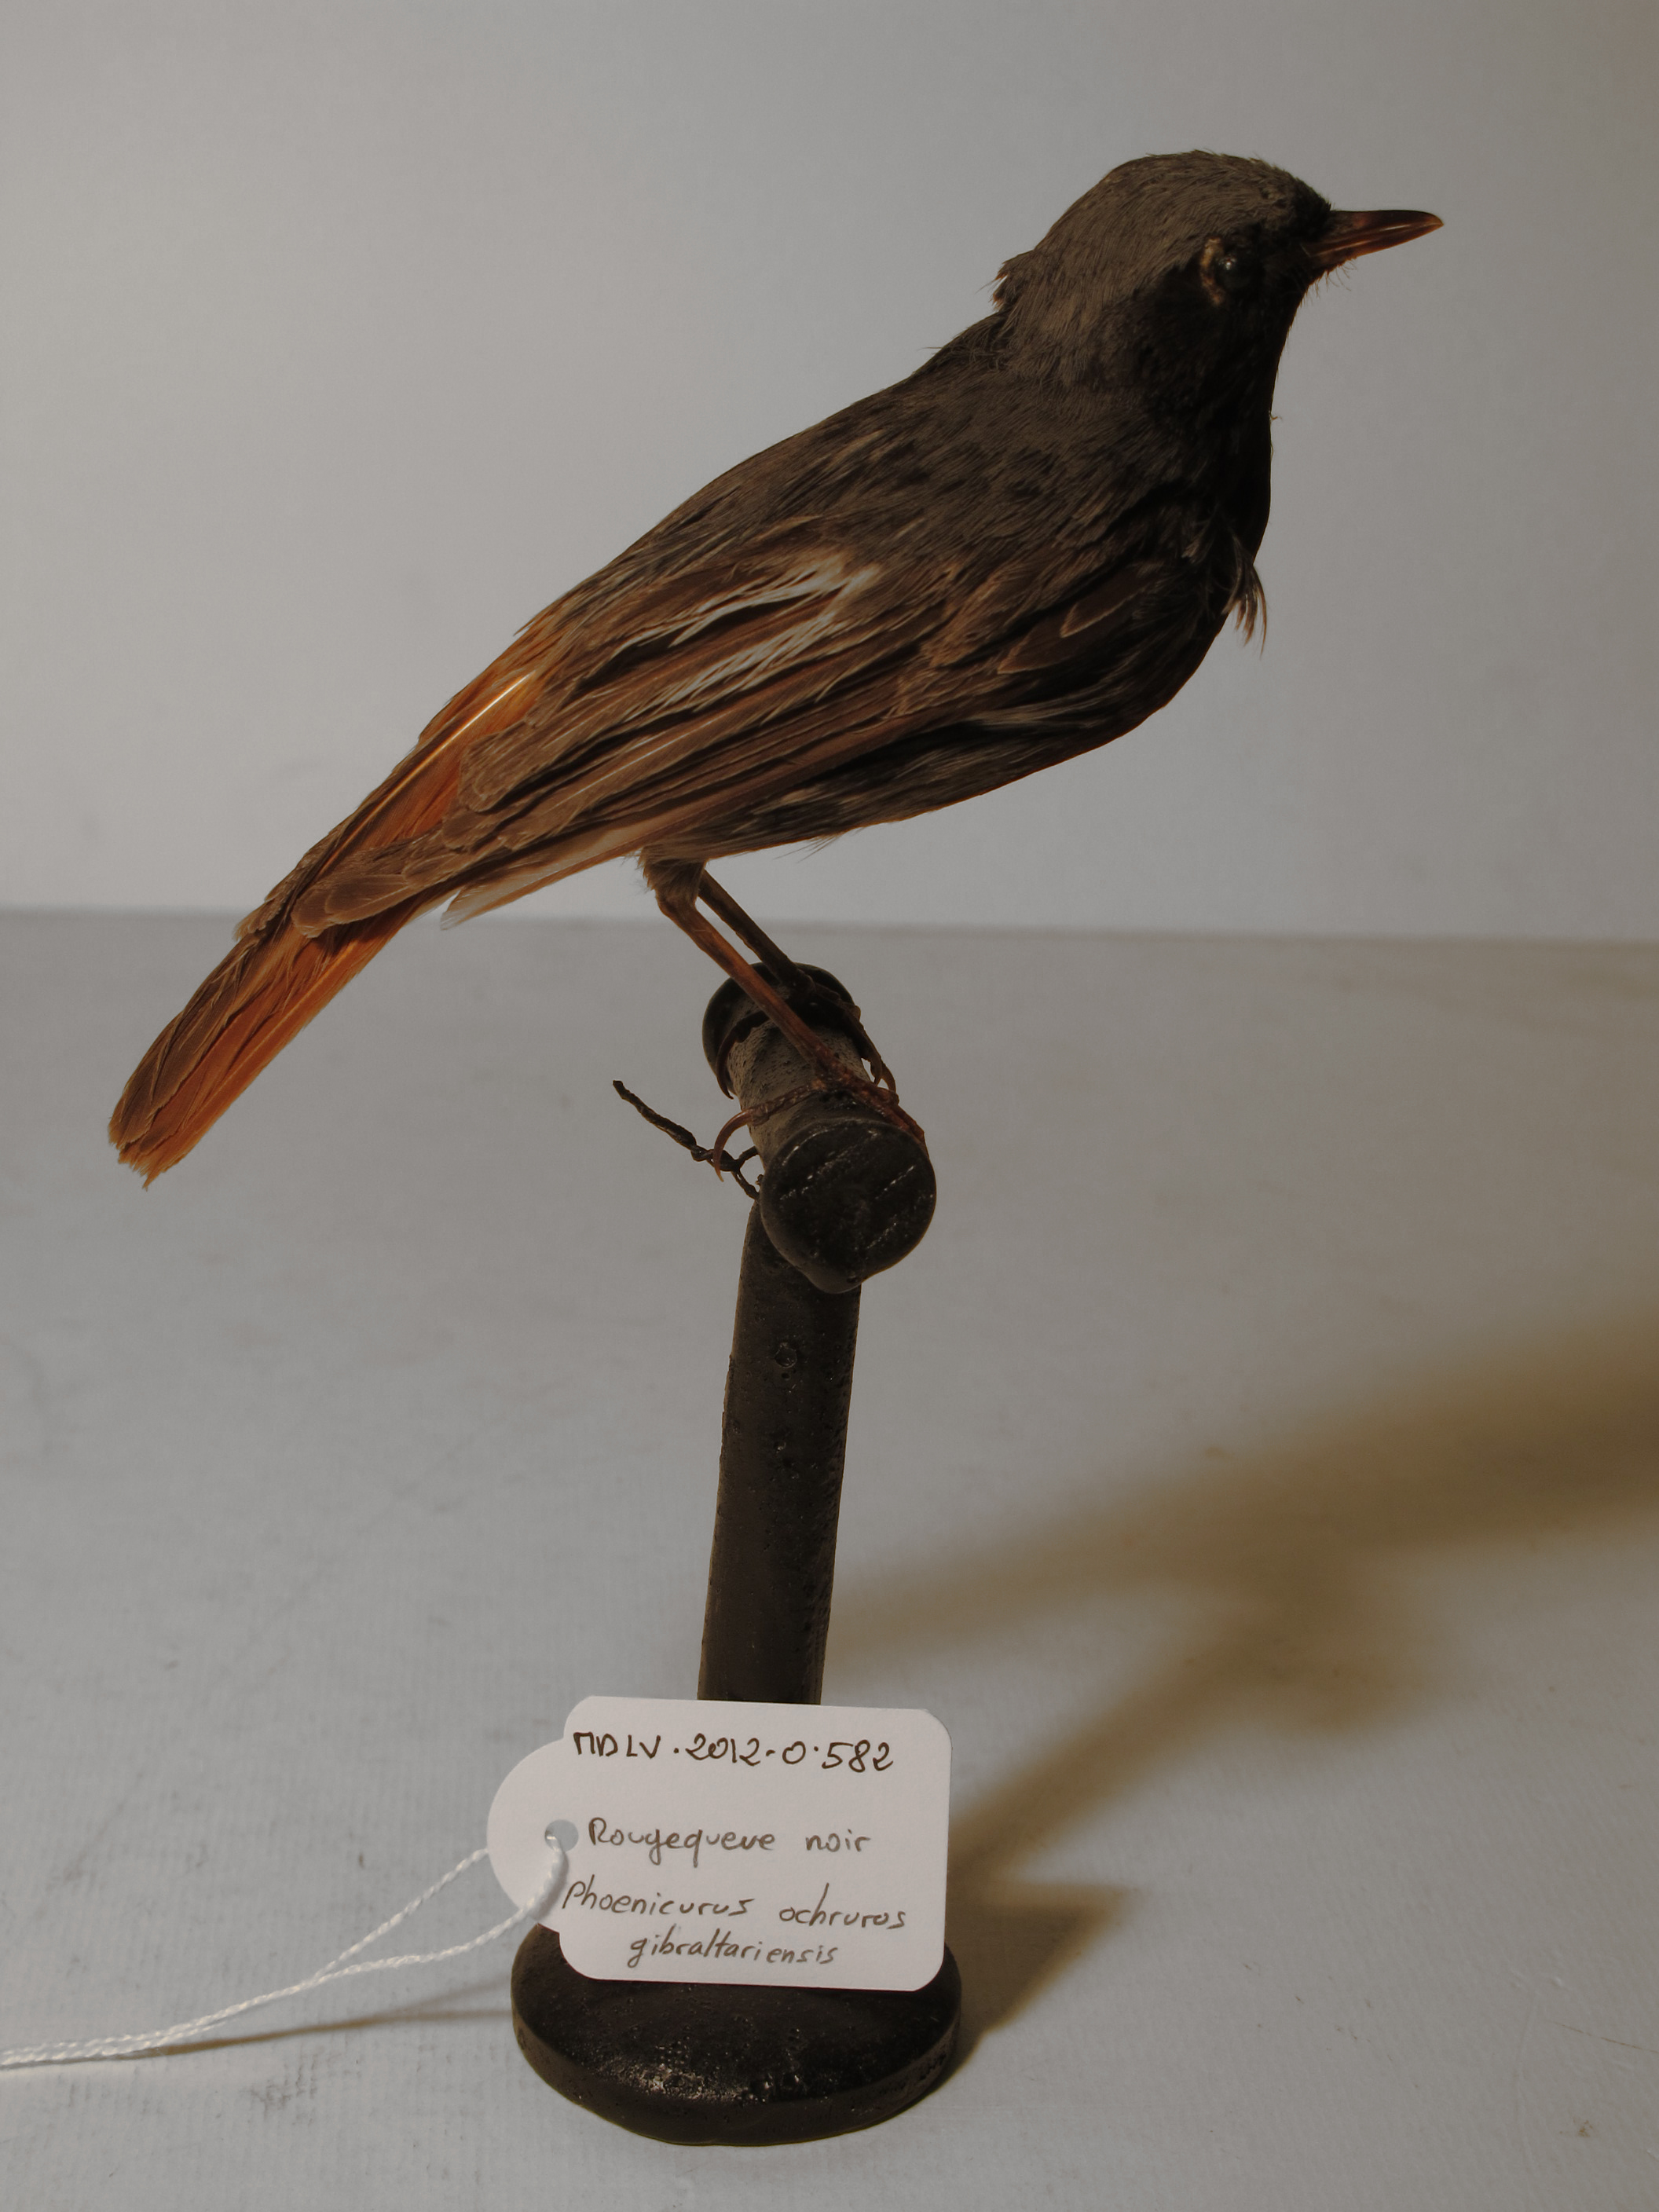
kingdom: Animalia
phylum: Chordata
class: Aves
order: Passeriformes
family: Muscicapidae
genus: Phoenicurus
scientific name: Phoenicurus ochruros
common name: Black Redstart
